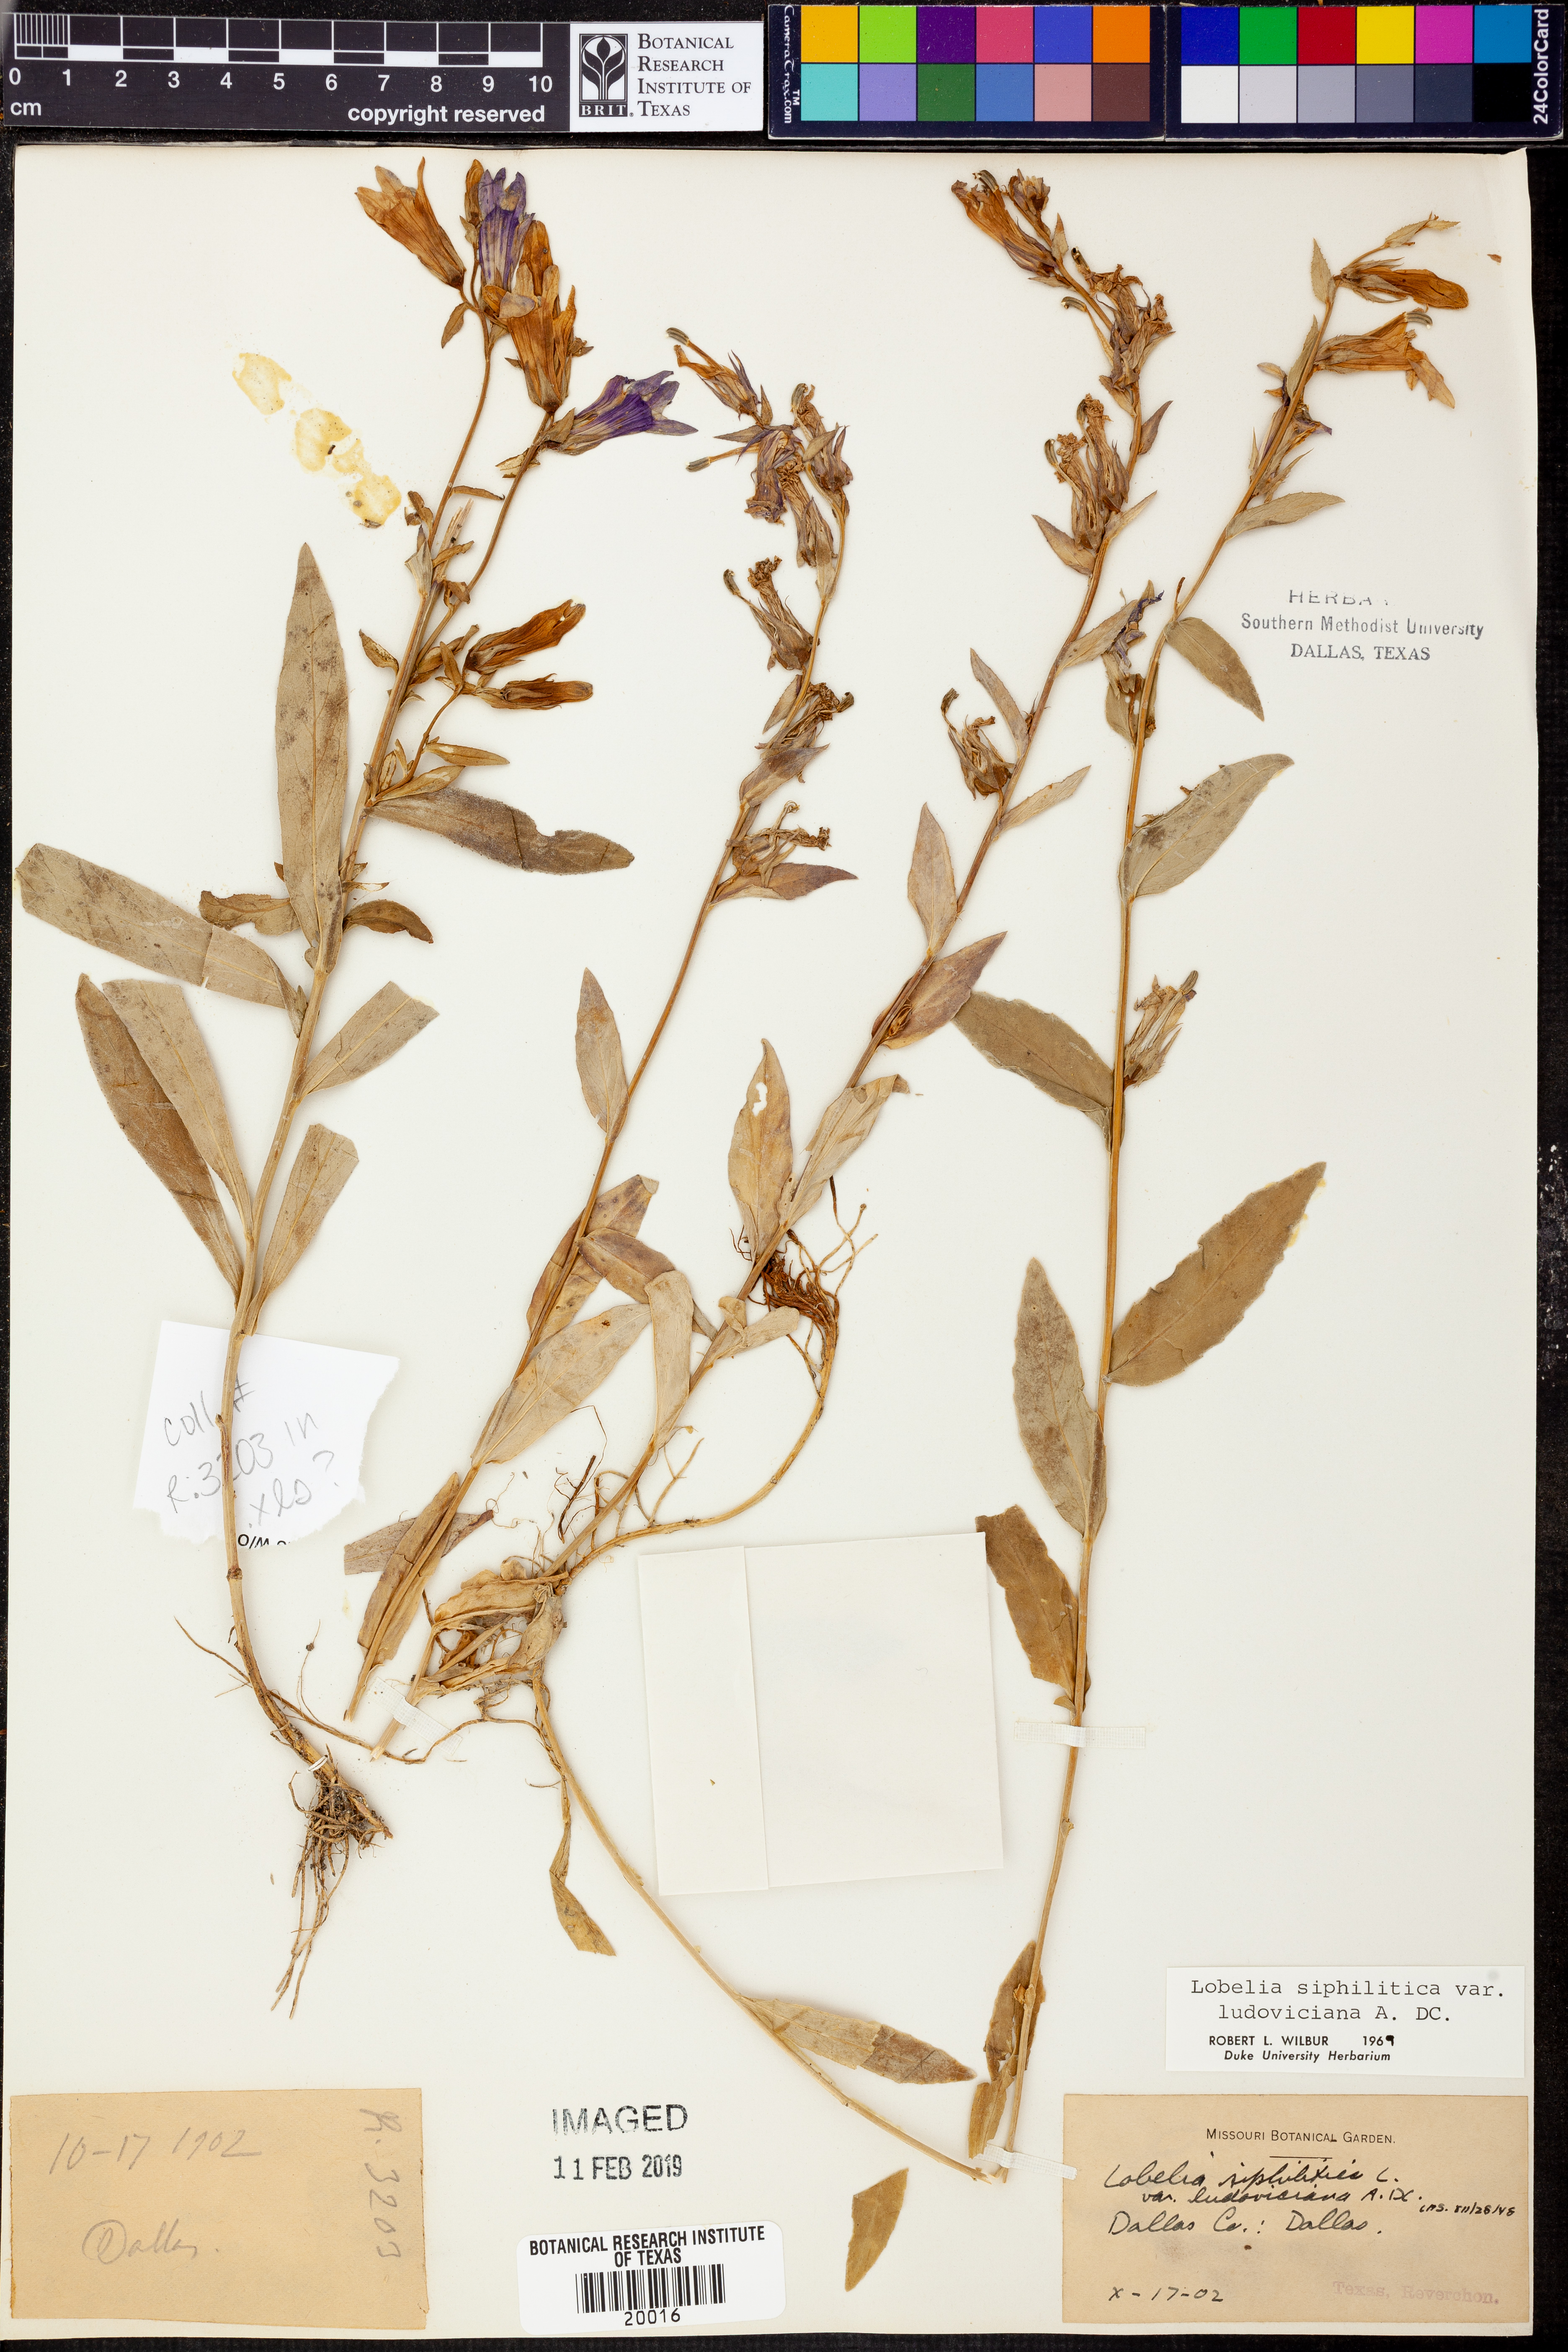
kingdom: Plantae
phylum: Tracheophyta
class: Magnoliopsida
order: Asterales
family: Campanulaceae
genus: Lobelia
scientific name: Lobelia siphilitica
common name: Great lobelia
